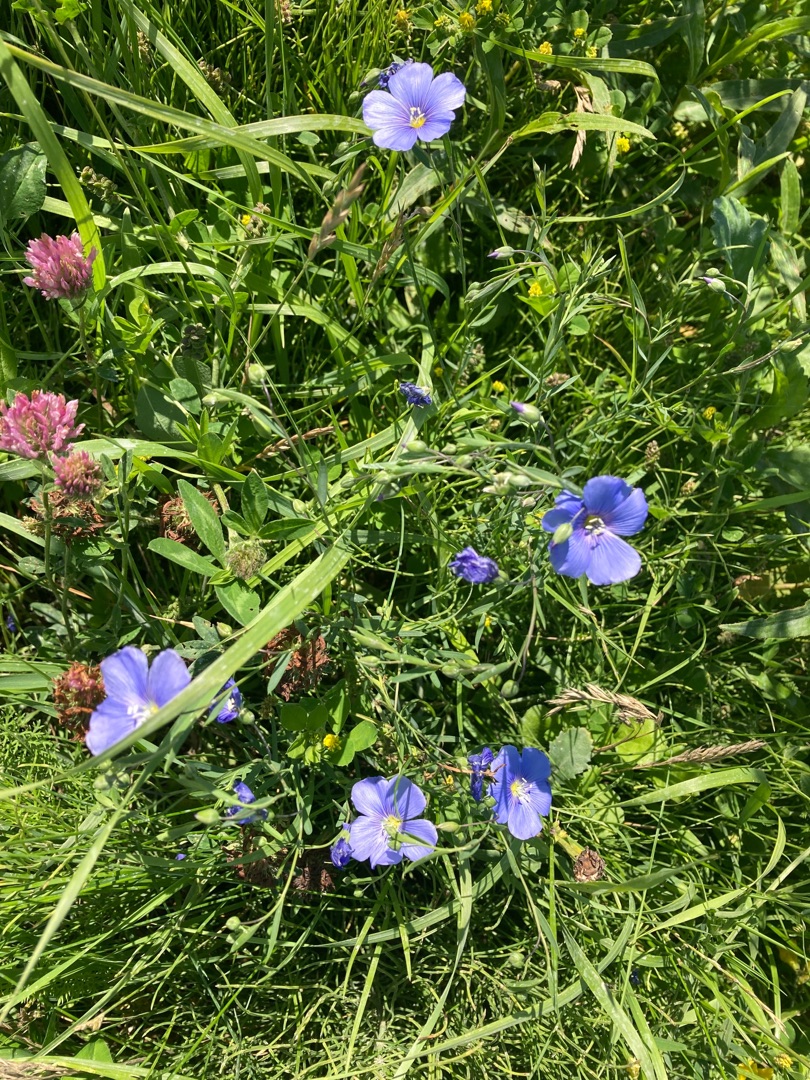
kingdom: Plantae
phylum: Tracheophyta
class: Magnoliopsida
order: Malpighiales
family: Linaceae
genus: Linum
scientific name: Linum
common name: Hørslægten
